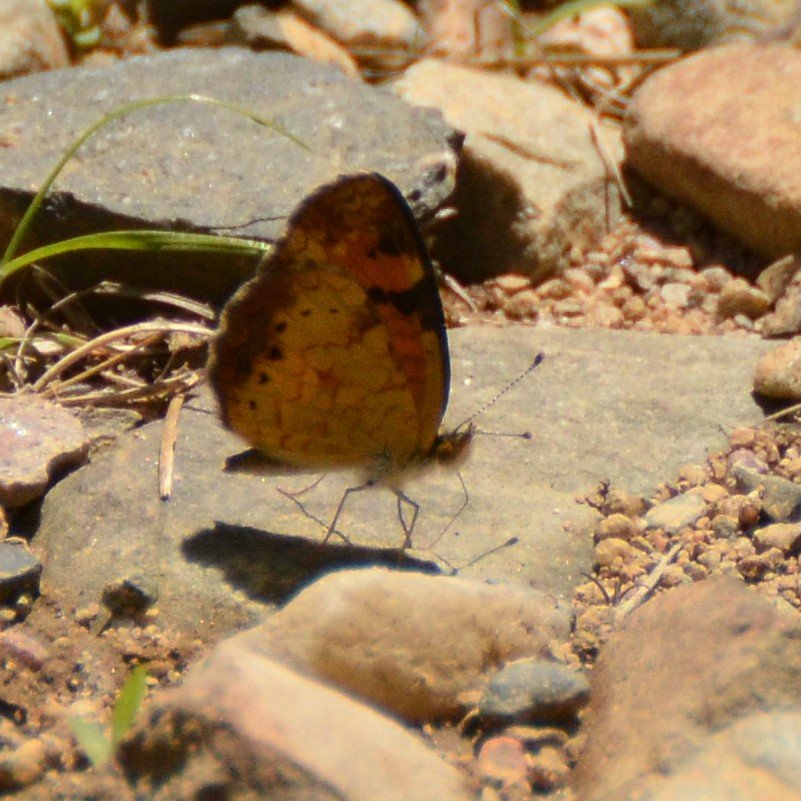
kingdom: Animalia
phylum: Arthropoda
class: Insecta
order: Lepidoptera
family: Nymphalidae
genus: Phyciodes
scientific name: Phyciodes tharos
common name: Northern Crescent
